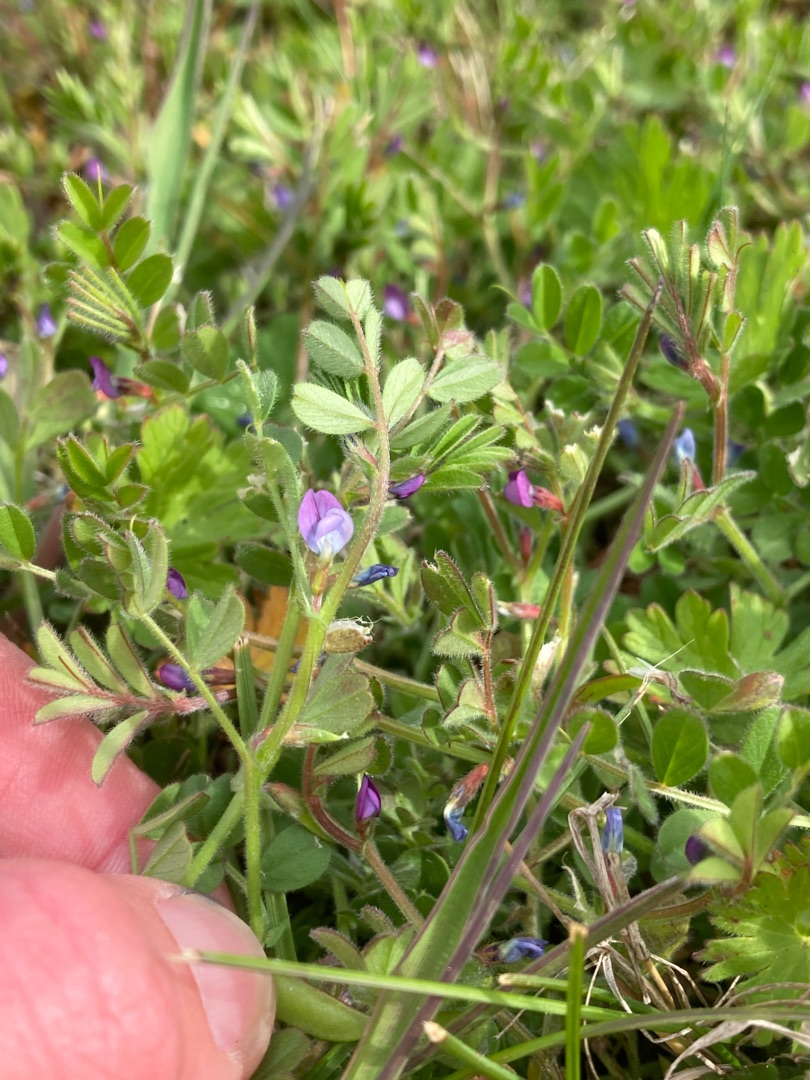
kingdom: Plantae
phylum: Tracheophyta
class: Magnoliopsida
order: Fabales
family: Fabaceae
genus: Vicia
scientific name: Vicia lathyroides
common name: Vår-vikke
